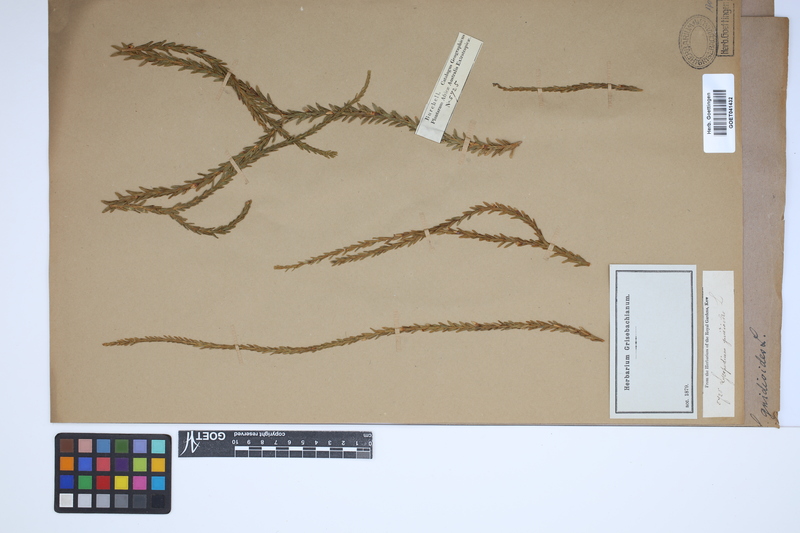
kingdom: Plantae
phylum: Tracheophyta
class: Lycopodiopsida
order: Lycopodiales
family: Lycopodiaceae
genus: Phlegmariurus
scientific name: Phlegmariurus gnidioides
